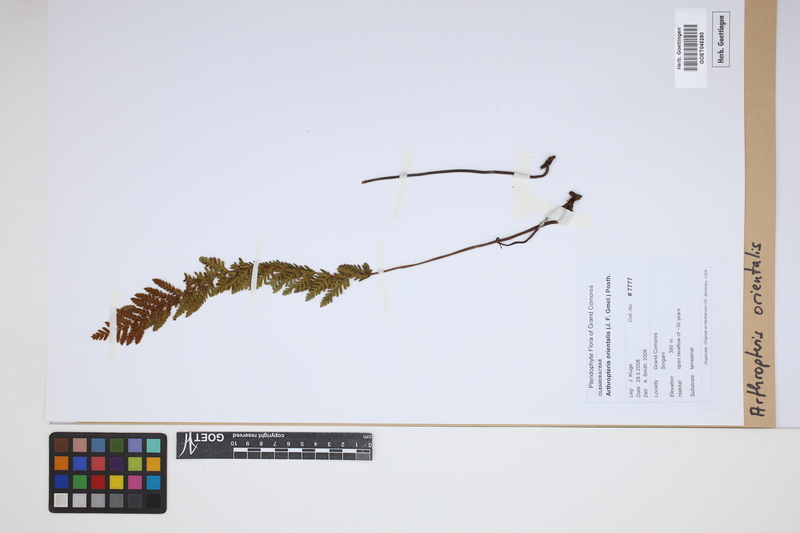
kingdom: Plantae
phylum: Tracheophyta
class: Polypodiopsida
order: Polypodiales
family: Tectariaceae
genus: Arthropteris
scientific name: Arthropteris orientalis
